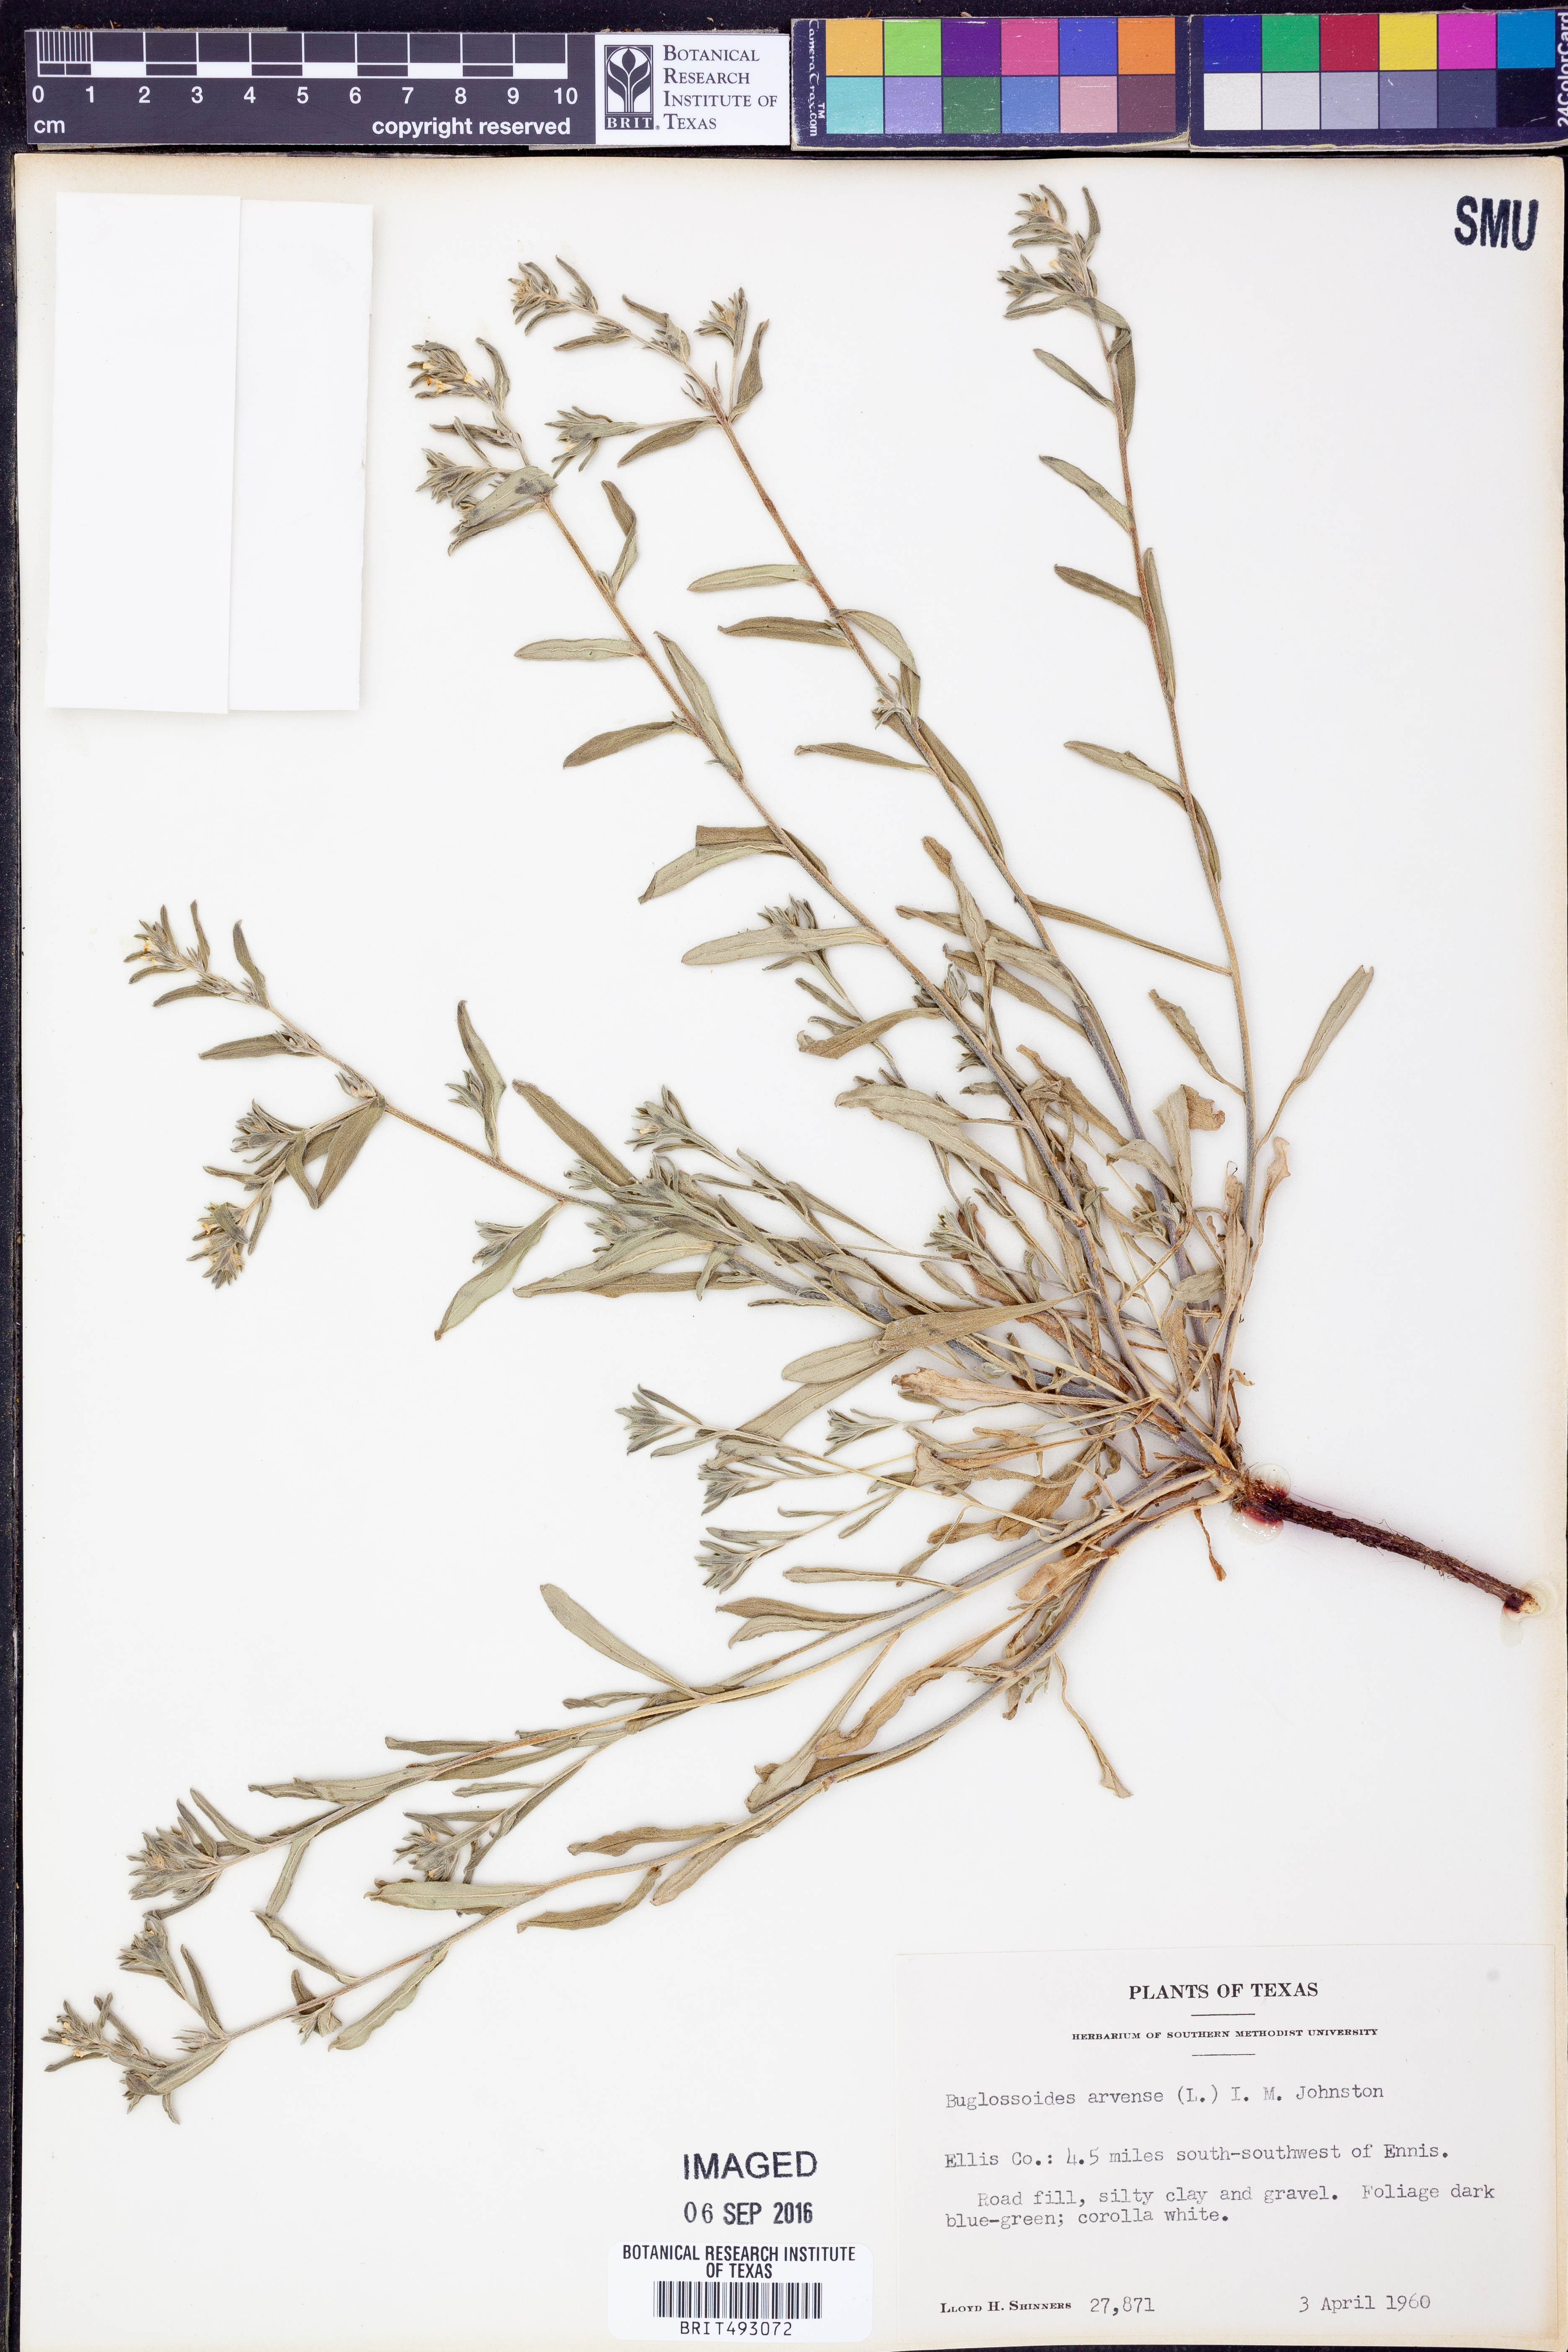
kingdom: Plantae
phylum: Tracheophyta
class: Magnoliopsida
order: Boraginales
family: Boraginaceae
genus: Buglossoides
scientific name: Buglossoides arvensis
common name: Corn gromwell
